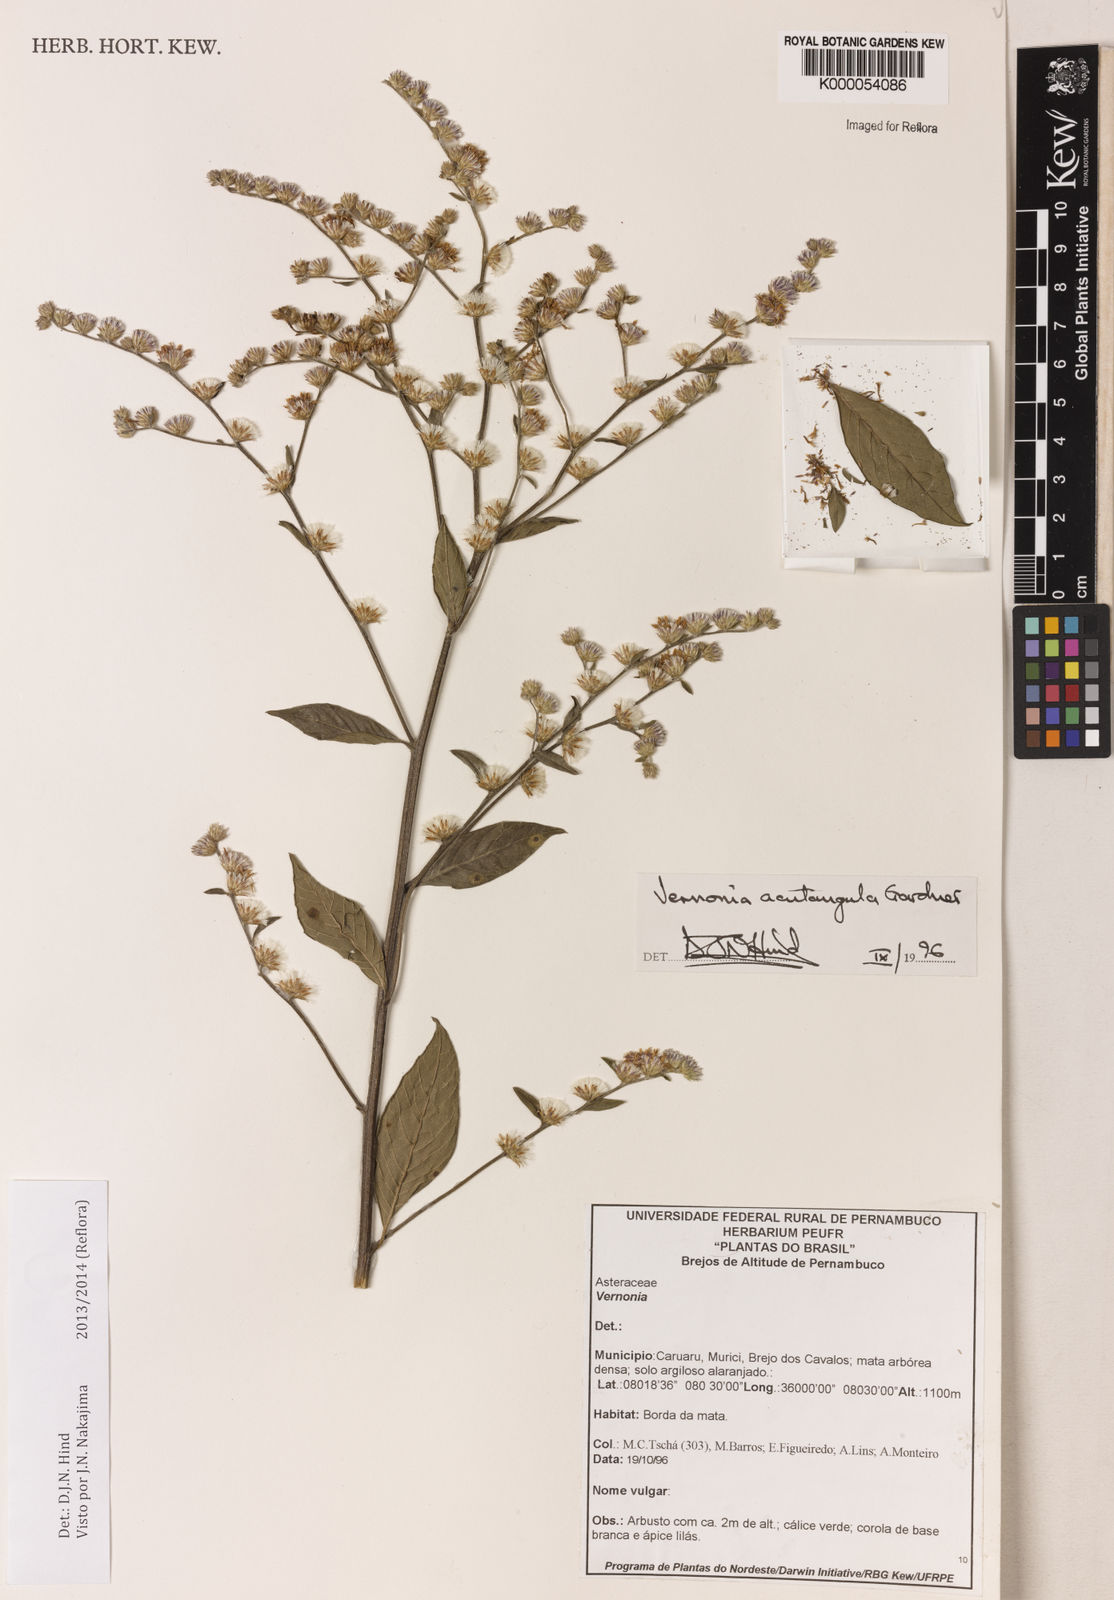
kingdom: Plantae
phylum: Tracheophyta
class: Magnoliopsida
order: Asterales
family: Asteraceae
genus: Lepidaploa
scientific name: Lepidaploa acutangula
